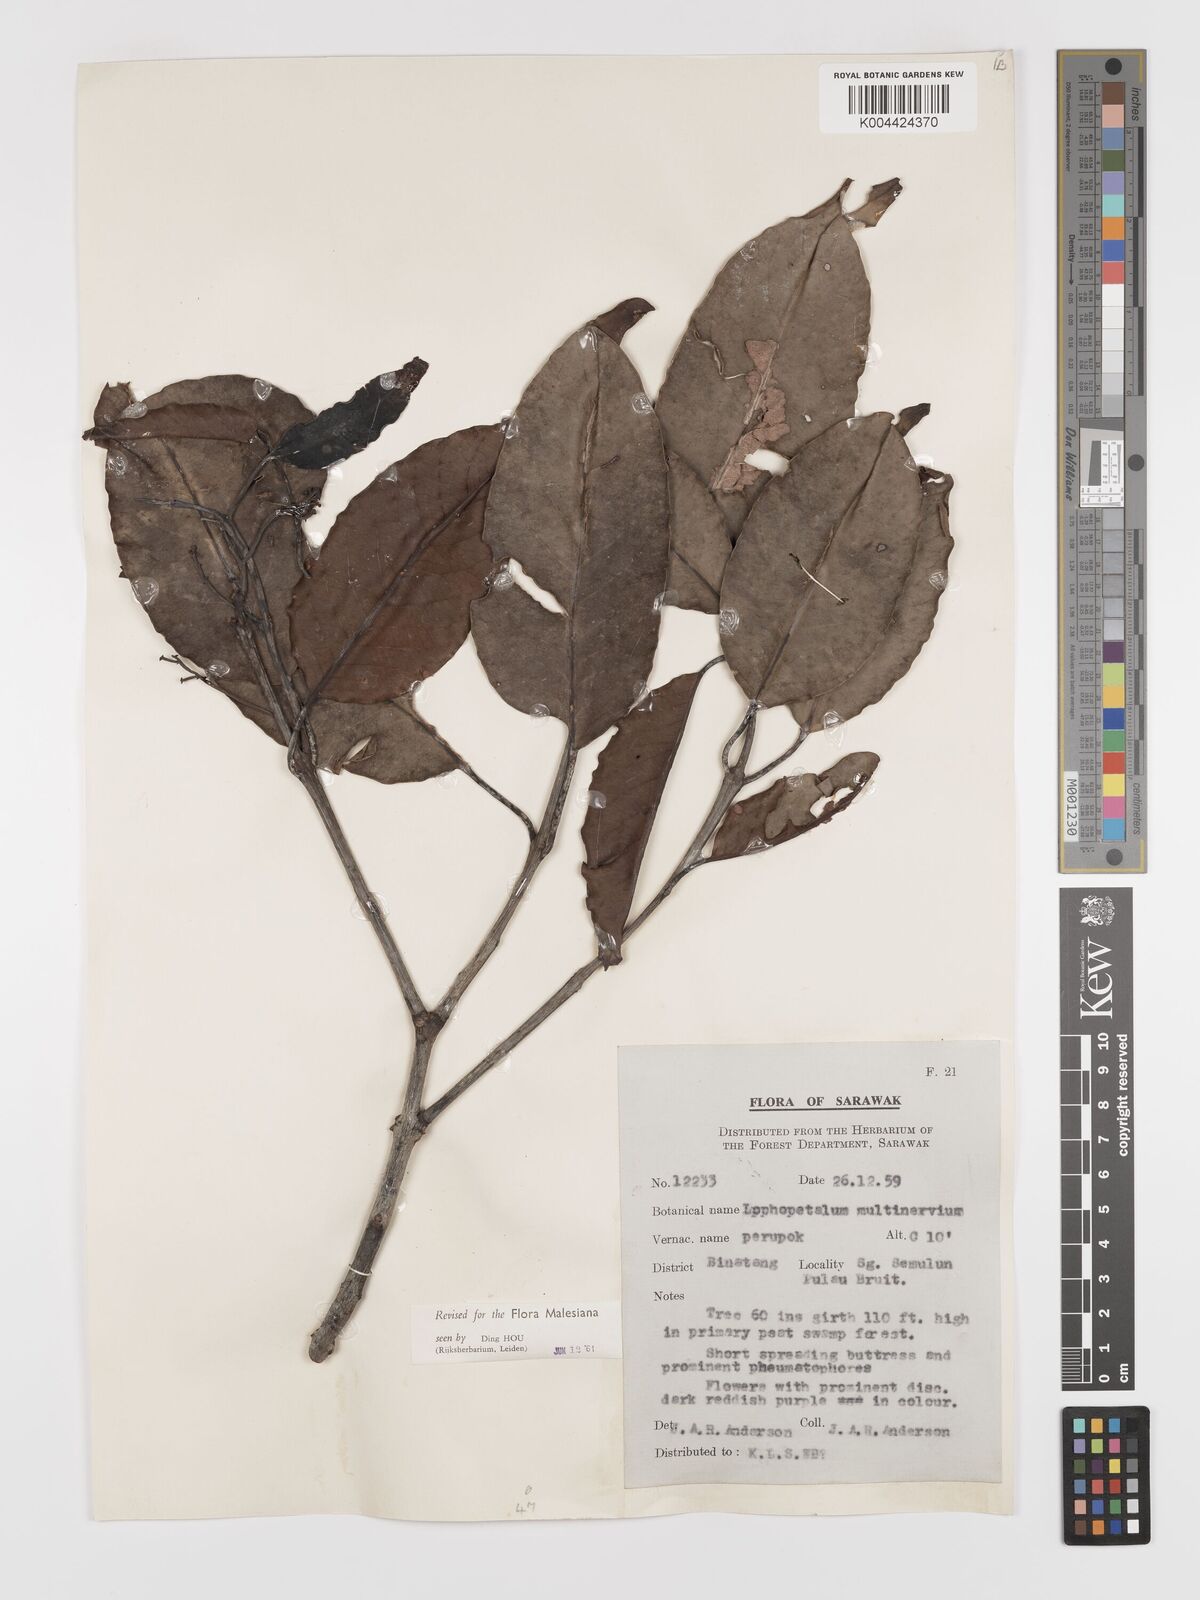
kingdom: Plantae
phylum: Tracheophyta
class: Magnoliopsida
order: Celastrales
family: Celastraceae
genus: Lophopetalum
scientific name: Lophopetalum multinervium
